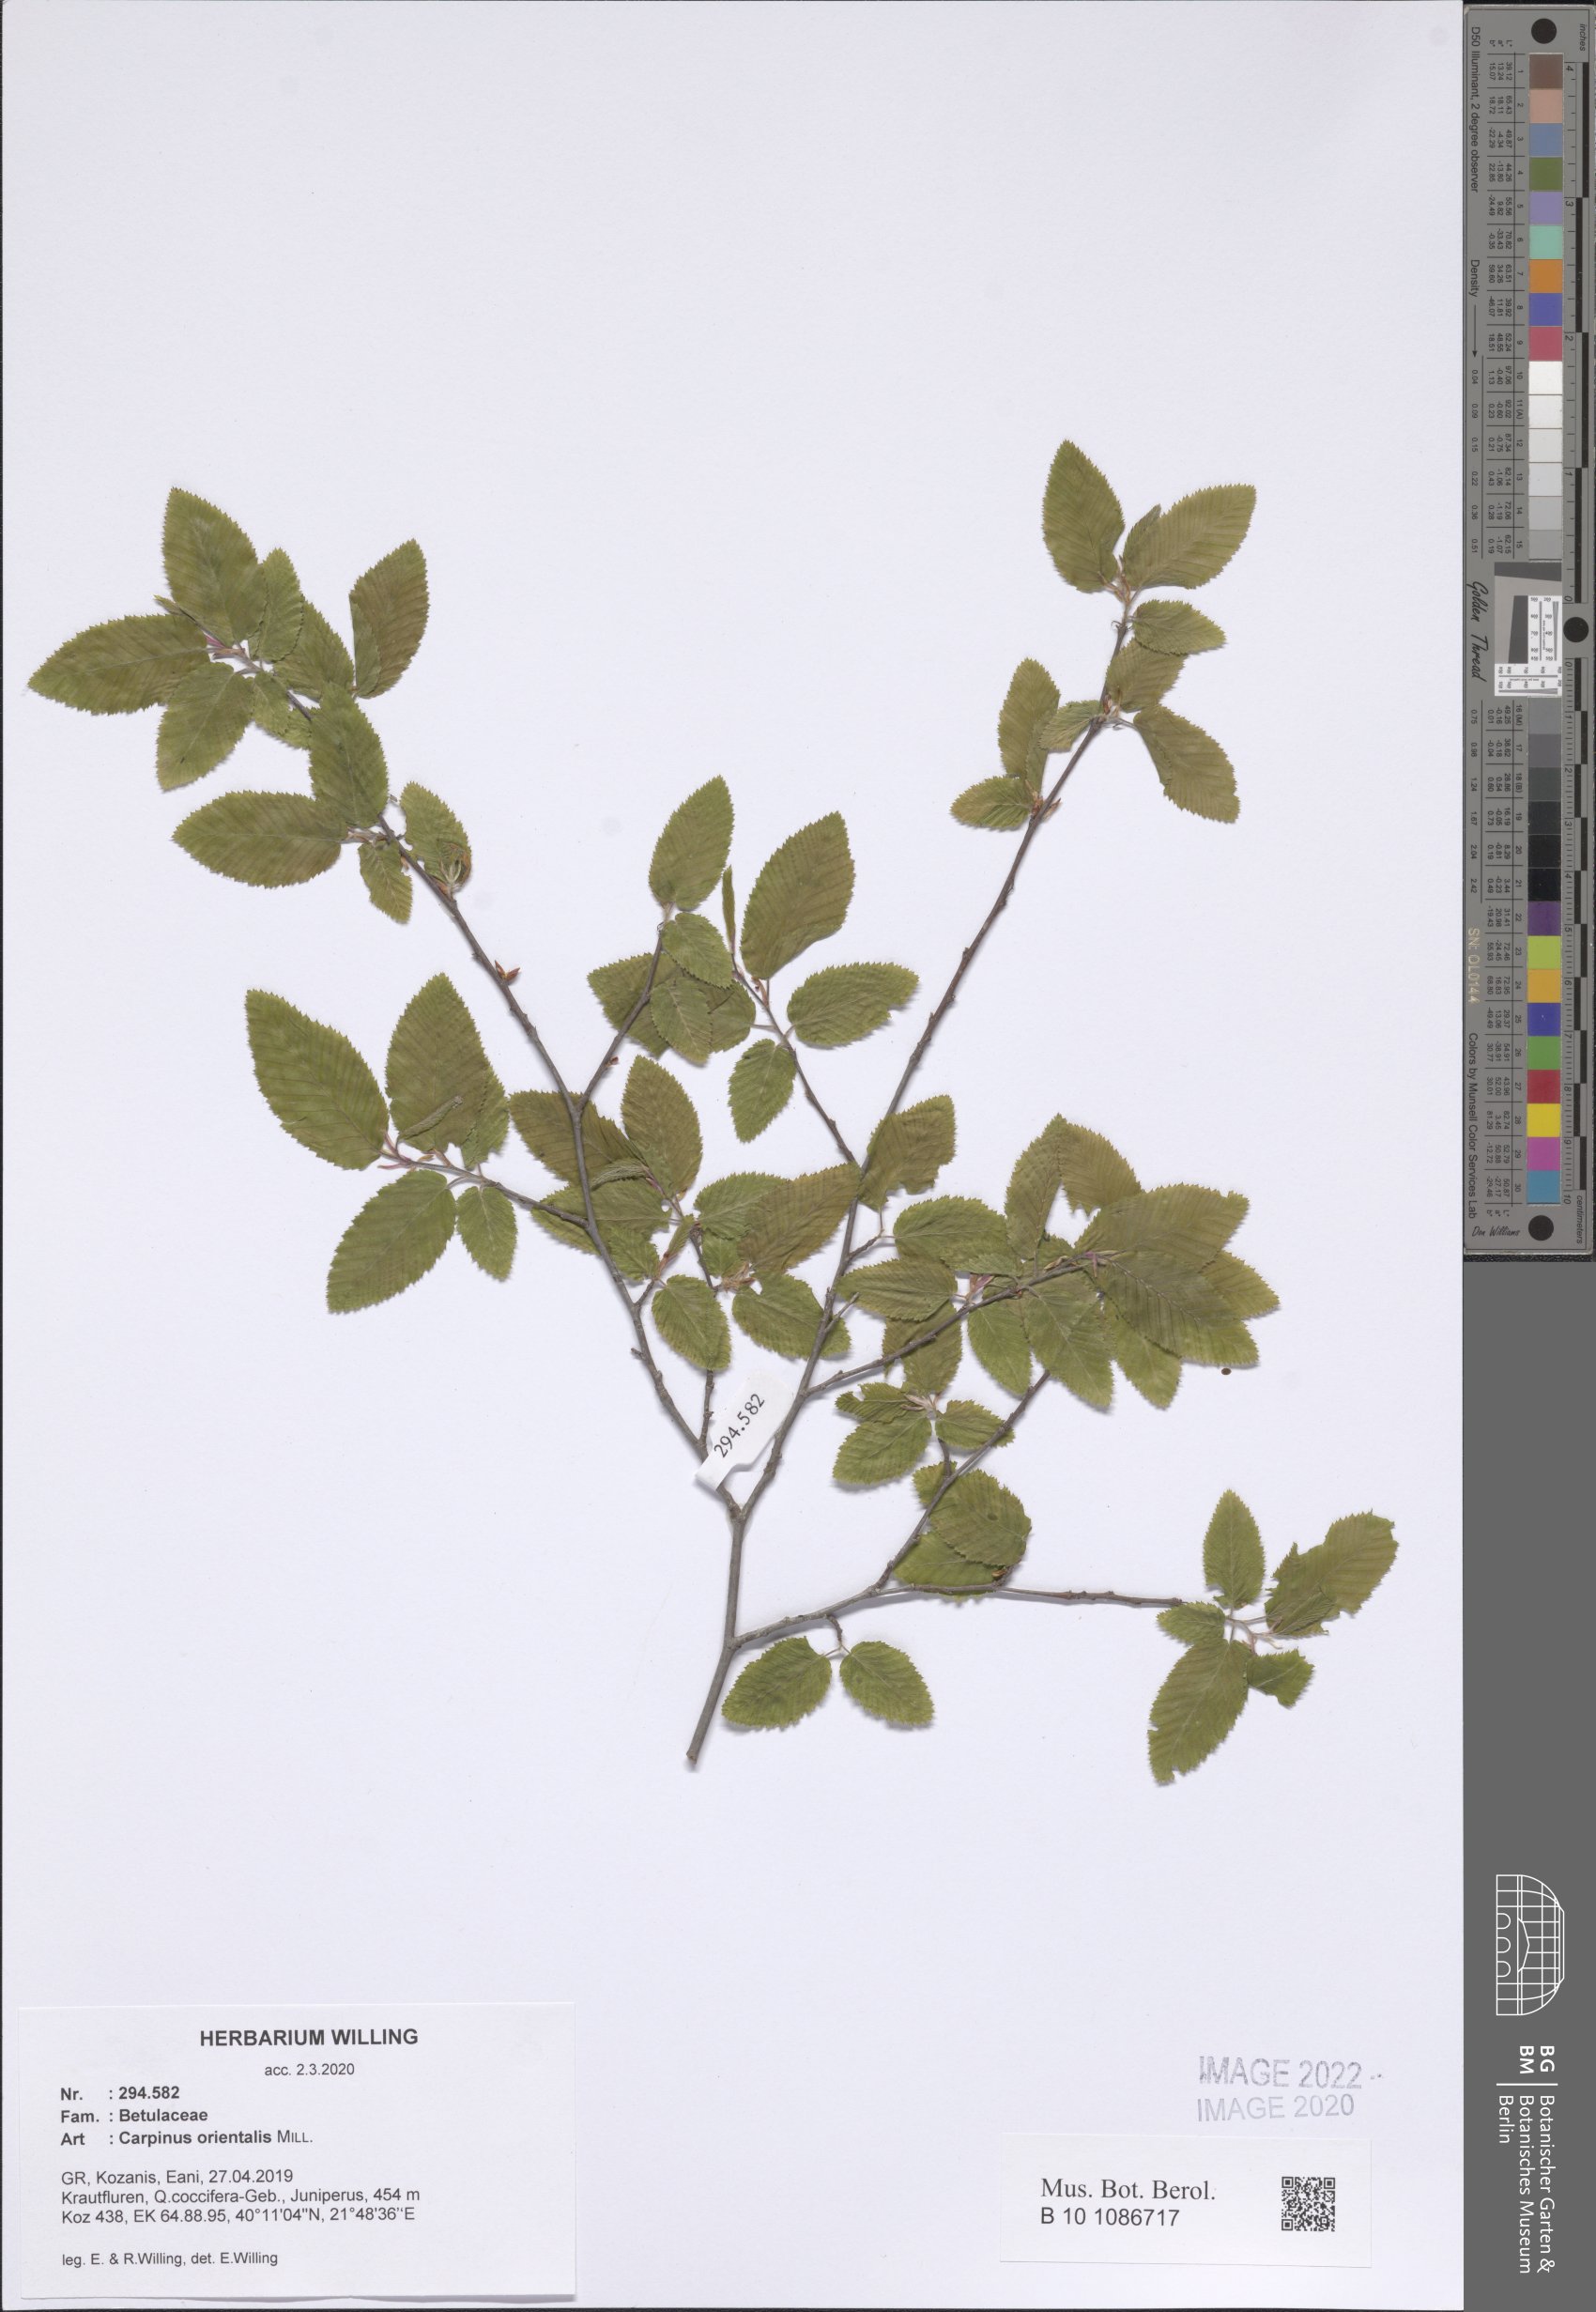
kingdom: Plantae
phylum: Tracheophyta
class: Magnoliopsida
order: Fagales
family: Betulaceae
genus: Carpinus
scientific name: Carpinus orientalis
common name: Eastern hornbeam
